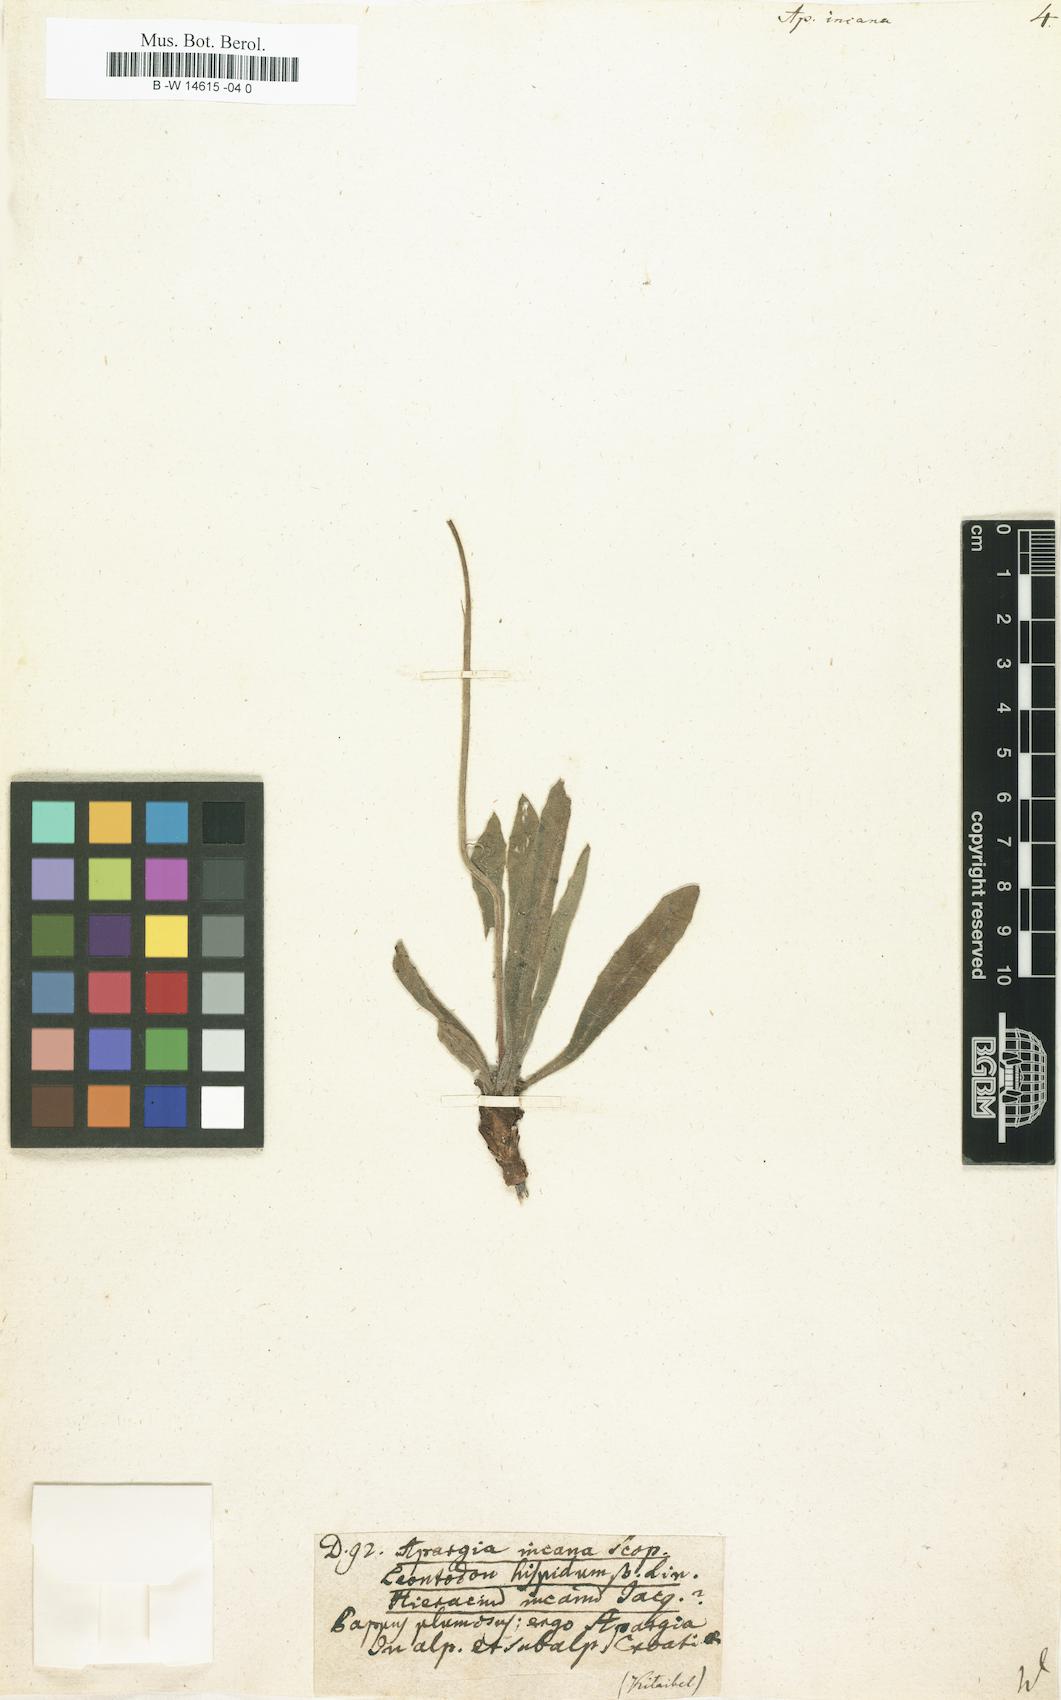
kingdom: Plantae
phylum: Tracheophyta
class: Magnoliopsida
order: Asterales
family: Asteraceae
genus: Leontodon
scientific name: Leontodon
